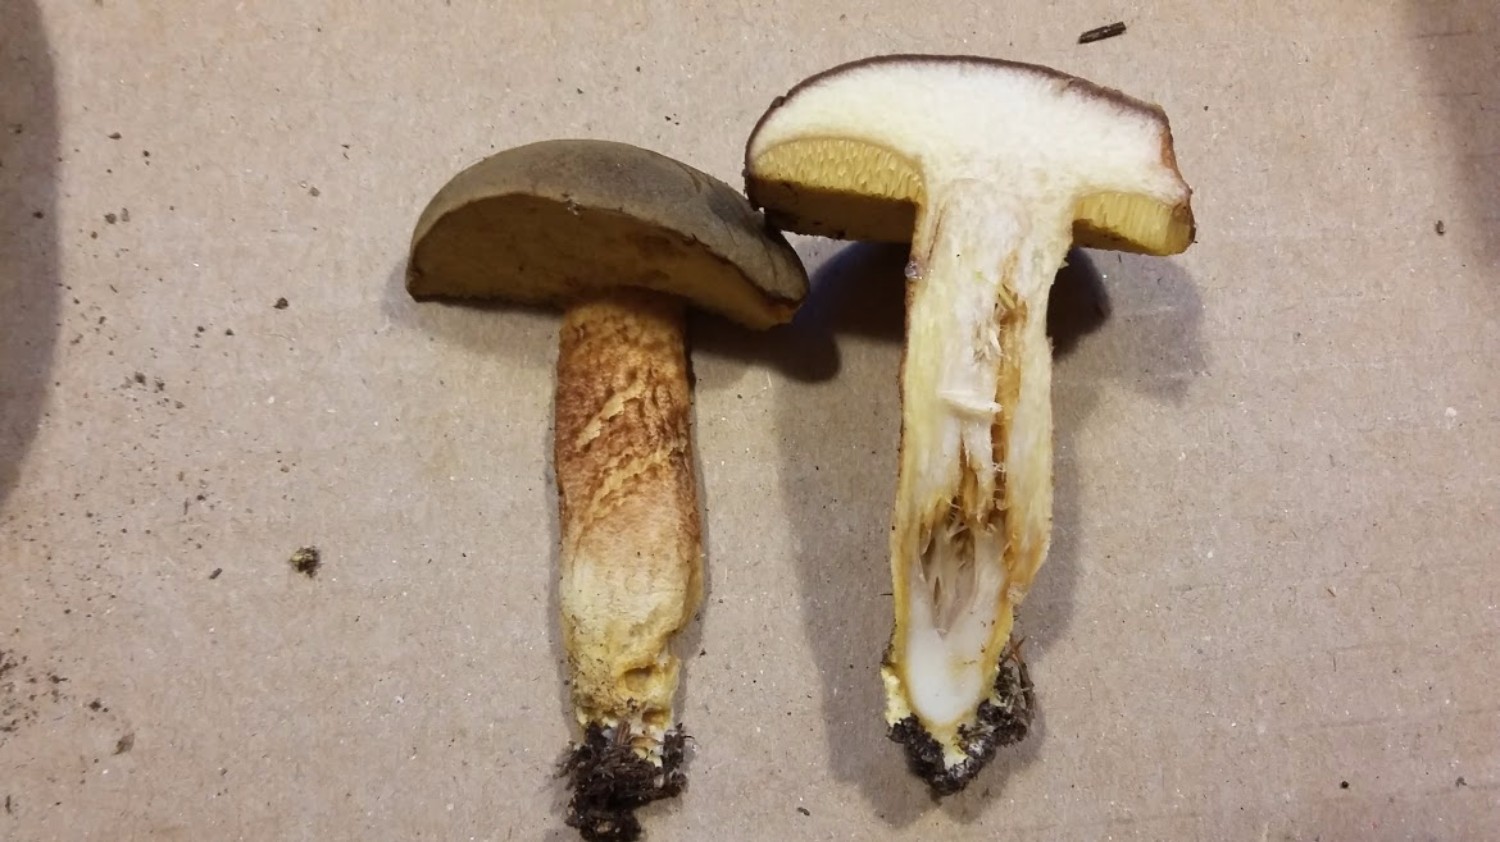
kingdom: Fungi
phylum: Basidiomycota
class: Agaricomycetes
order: Boletales
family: Boletaceae
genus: Xerocomus
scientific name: Xerocomus ferrugineus
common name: vaskeskinds-rørhat
